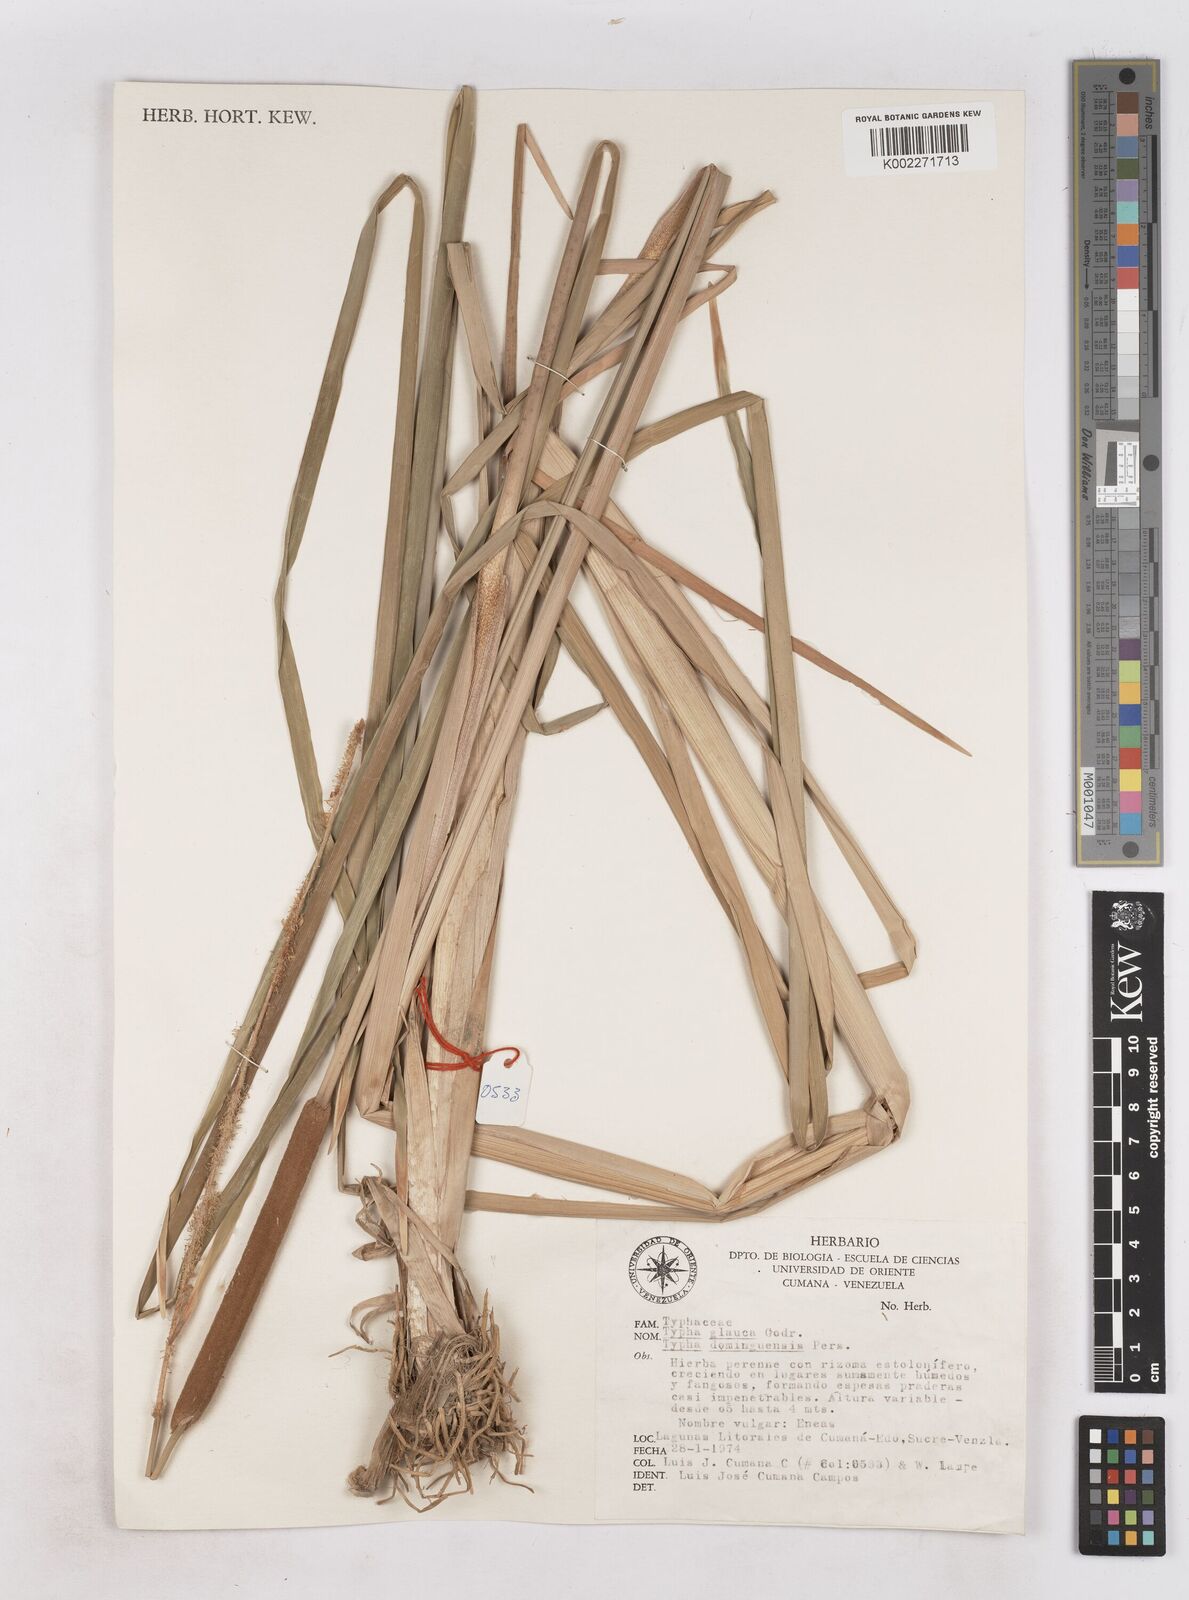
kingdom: Plantae
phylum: Tracheophyta
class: Liliopsida
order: Poales
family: Typhaceae
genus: Typha
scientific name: Typha domingensis
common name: Southern cattail
